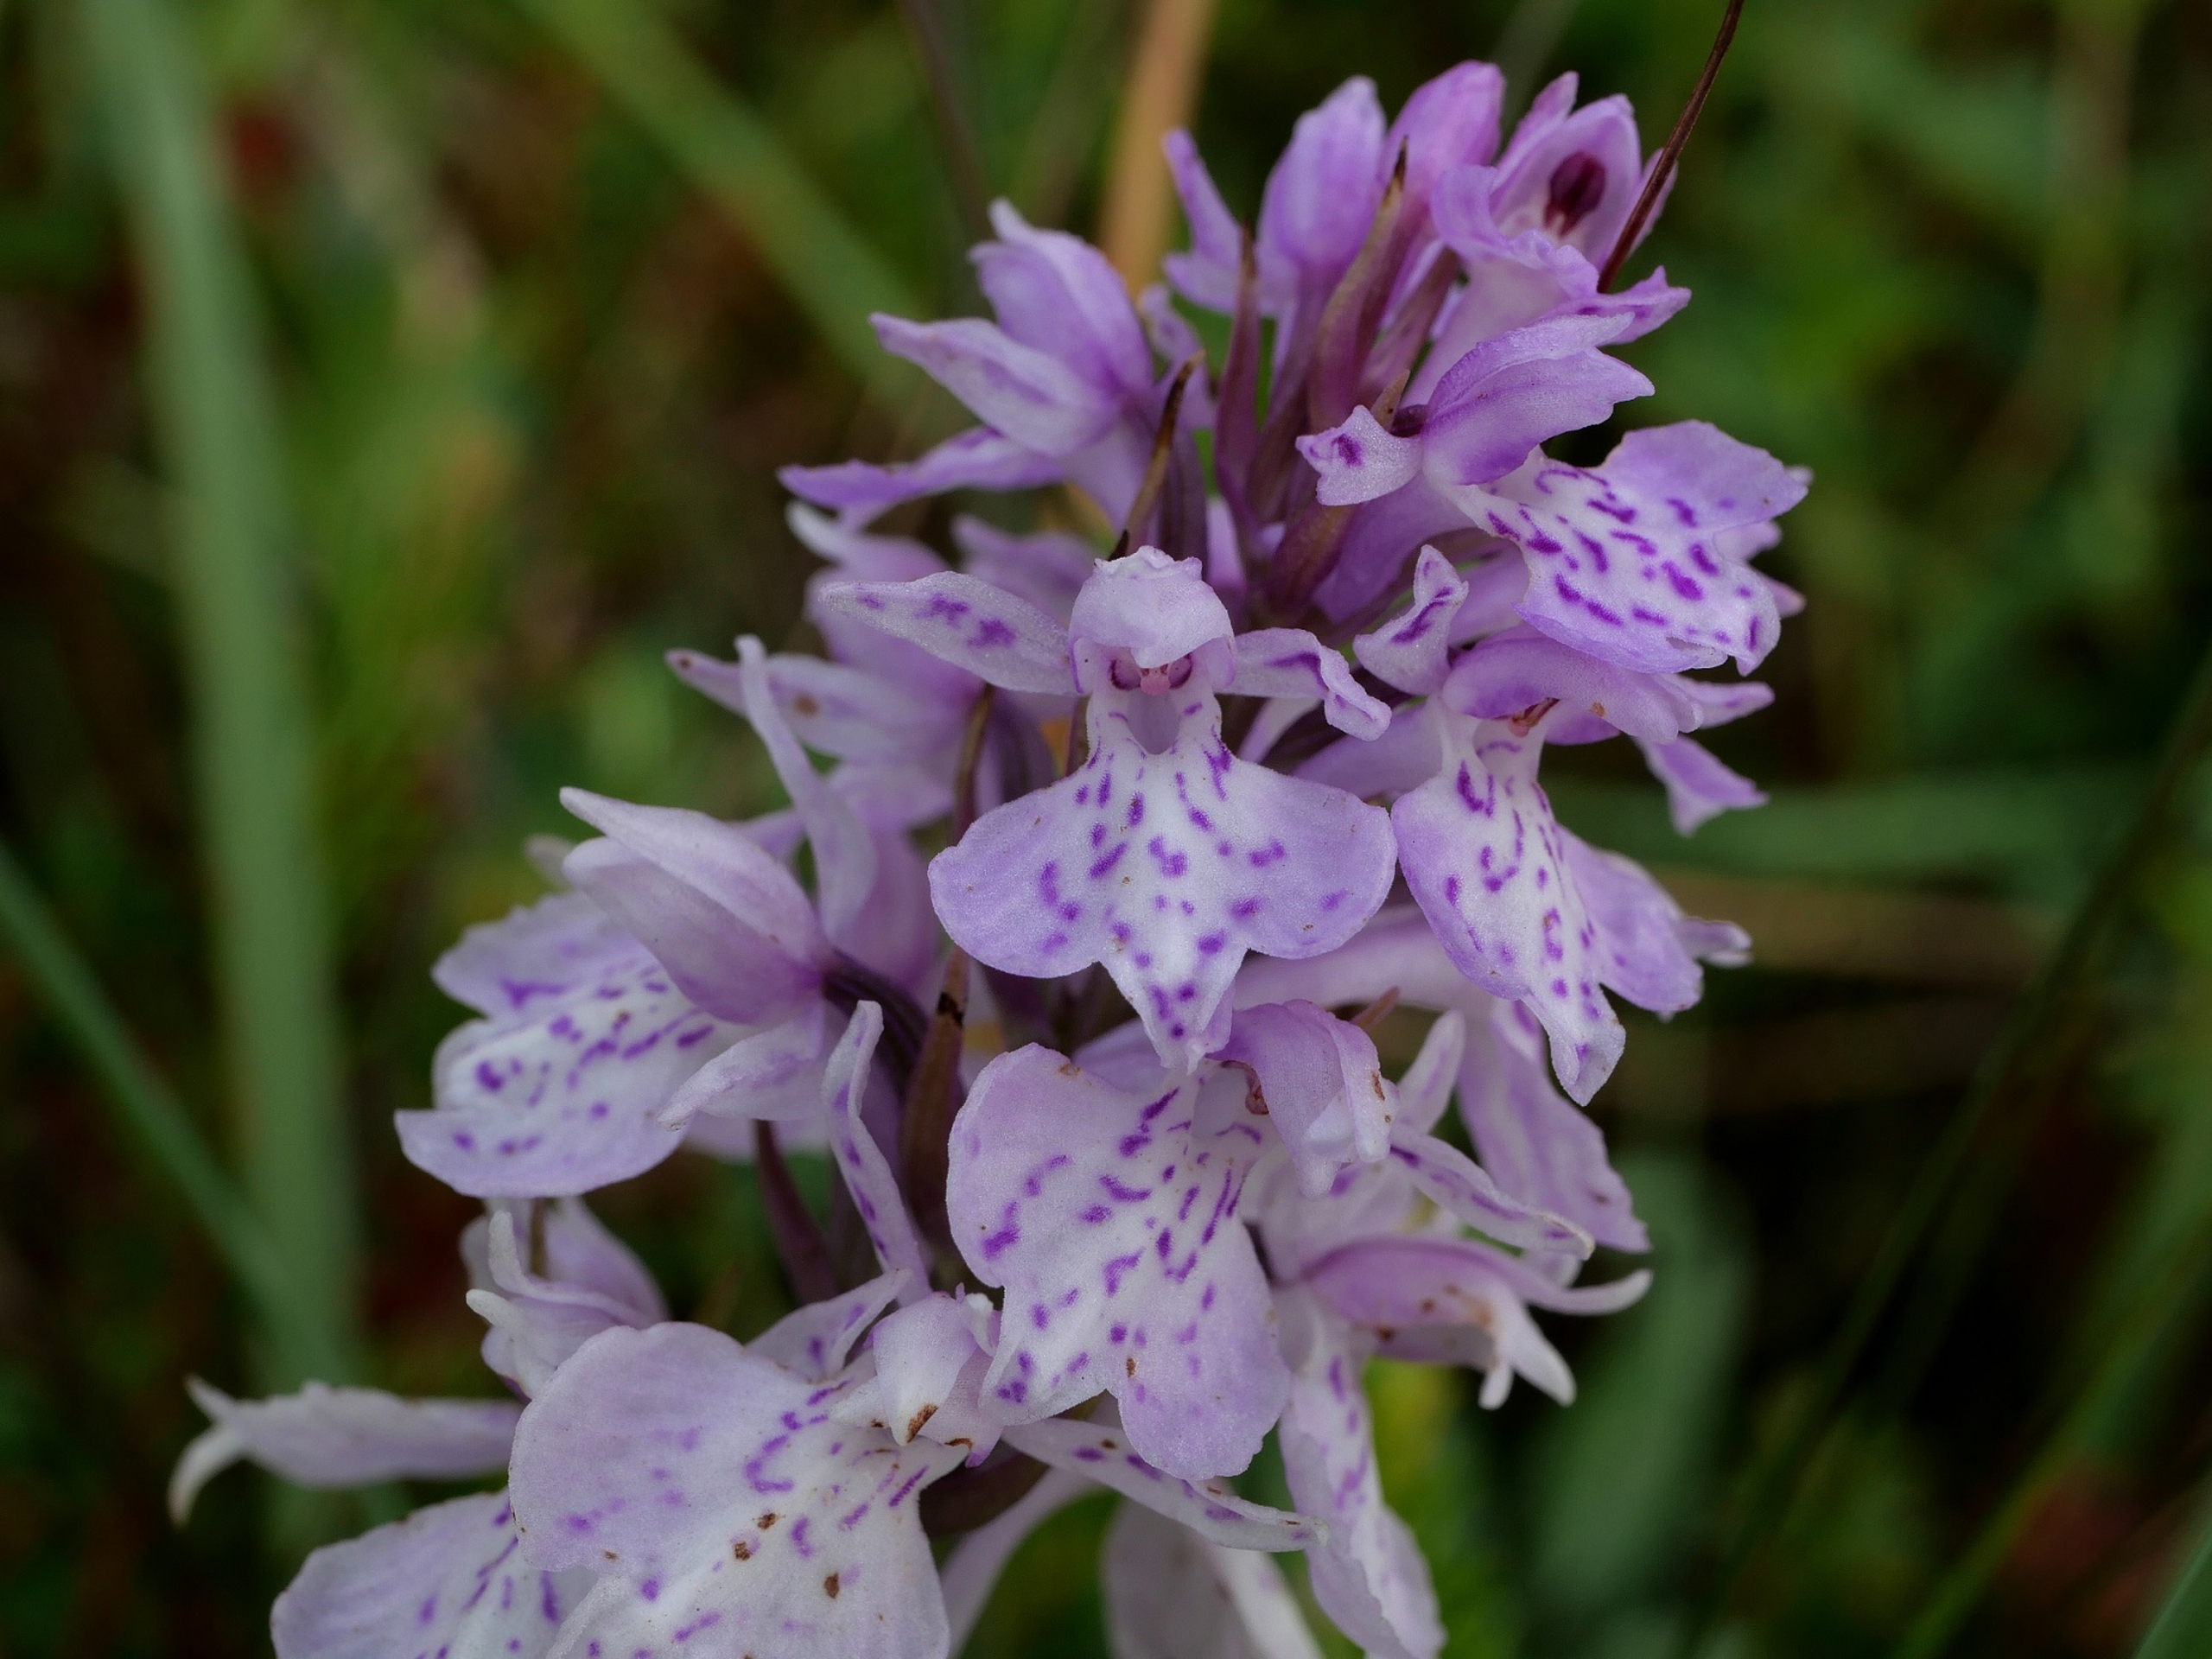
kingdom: Plantae
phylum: Tracheophyta
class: Liliopsida
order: Asparagales
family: Orchidaceae
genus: Dactylorhiza
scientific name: Dactylorhiza maculata
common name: Plettet gøgeurt (underart)
